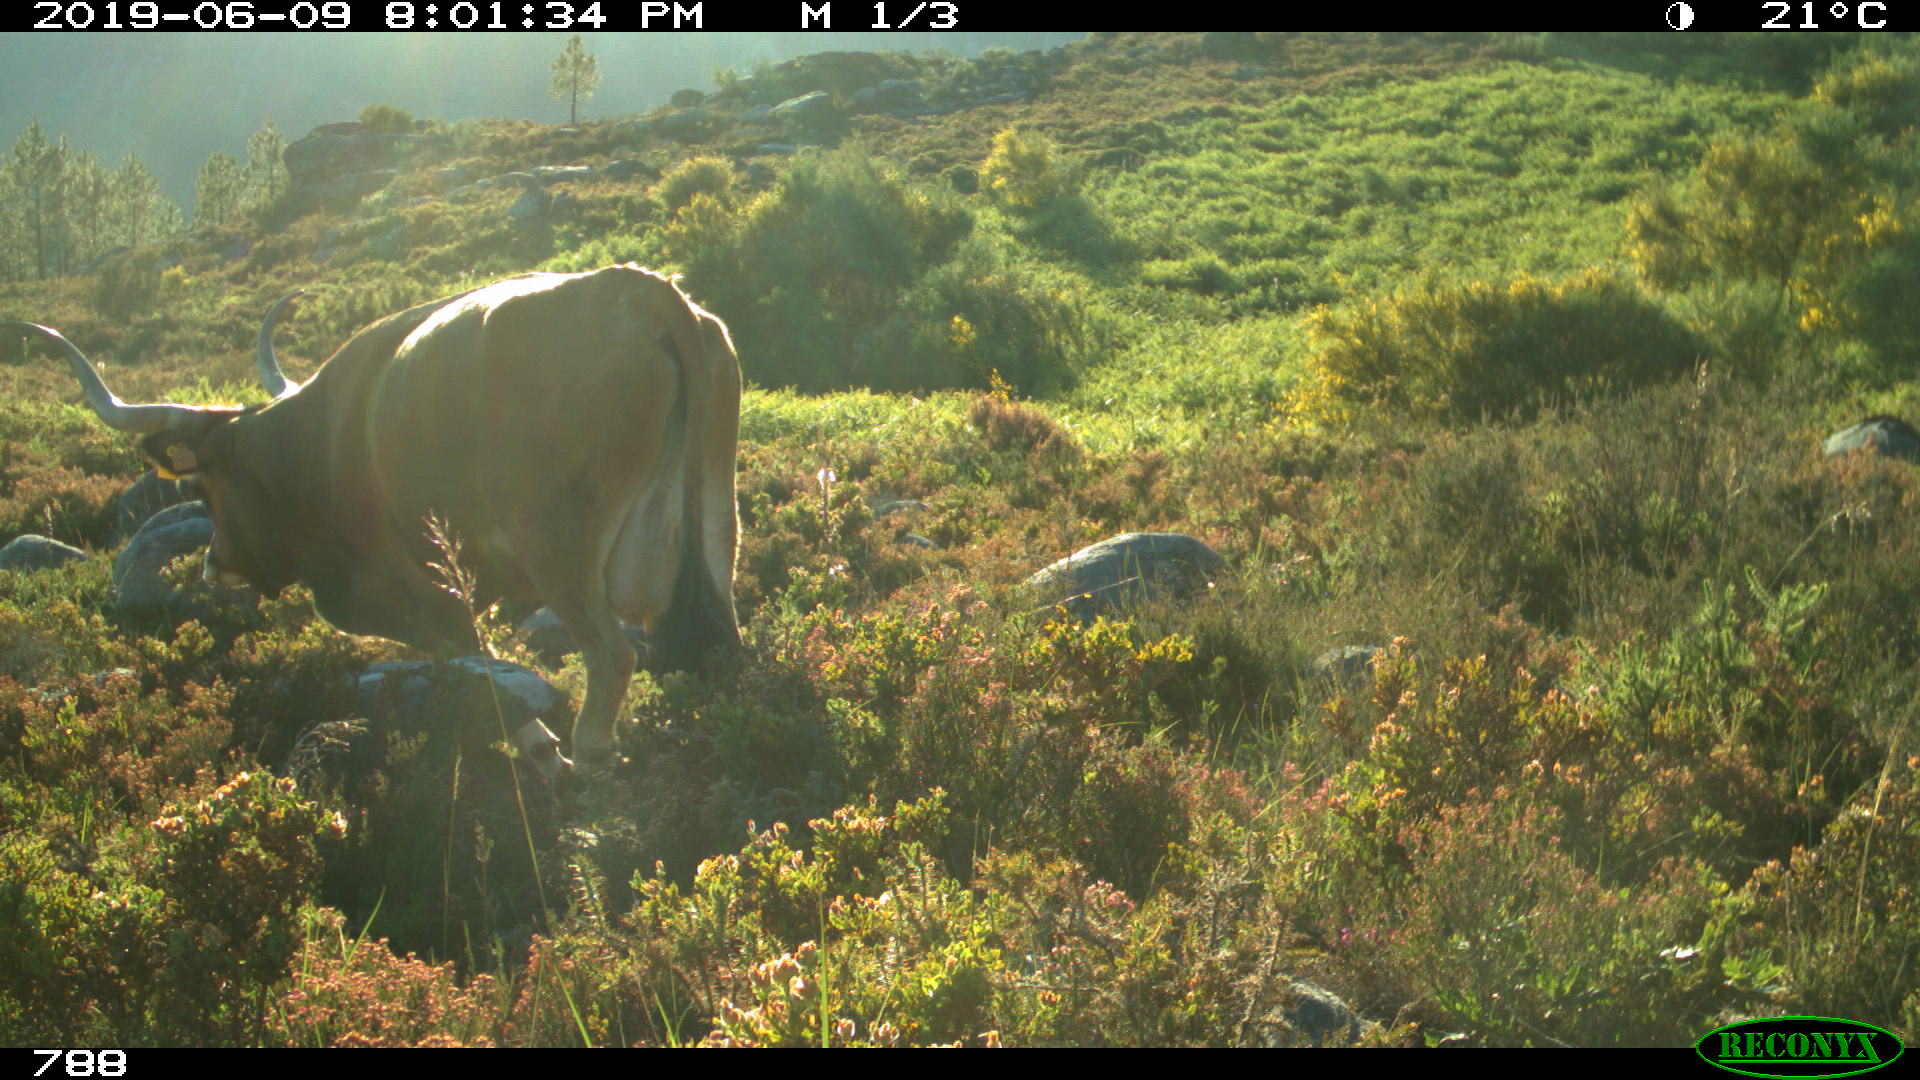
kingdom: Animalia
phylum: Chordata
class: Mammalia
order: Artiodactyla
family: Bovidae
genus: Bos
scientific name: Bos taurus
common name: Domesticated cattle
